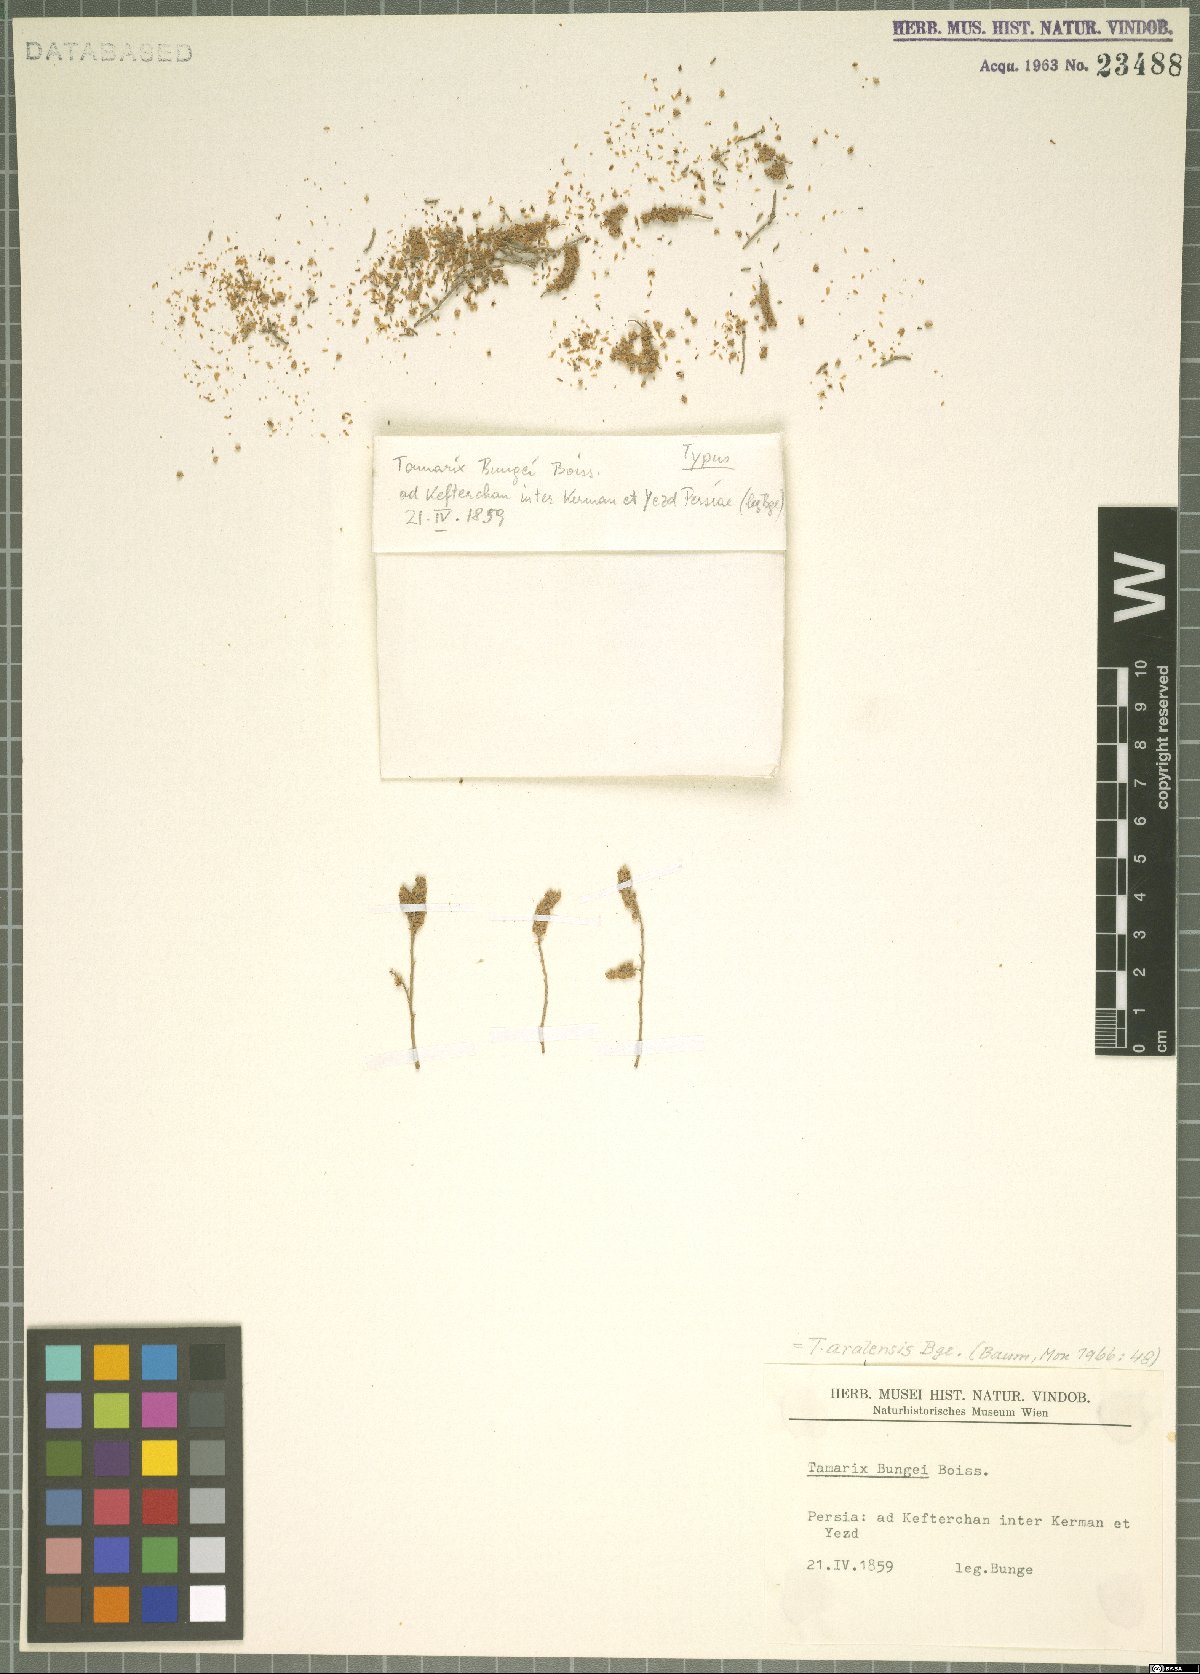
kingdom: Plantae
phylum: Tracheophyta
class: Magnoliopsida
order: Caryophyllales
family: Tamaricaceae
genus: Tamarix
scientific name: Tamarix aralensis
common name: Russian tamarisk
